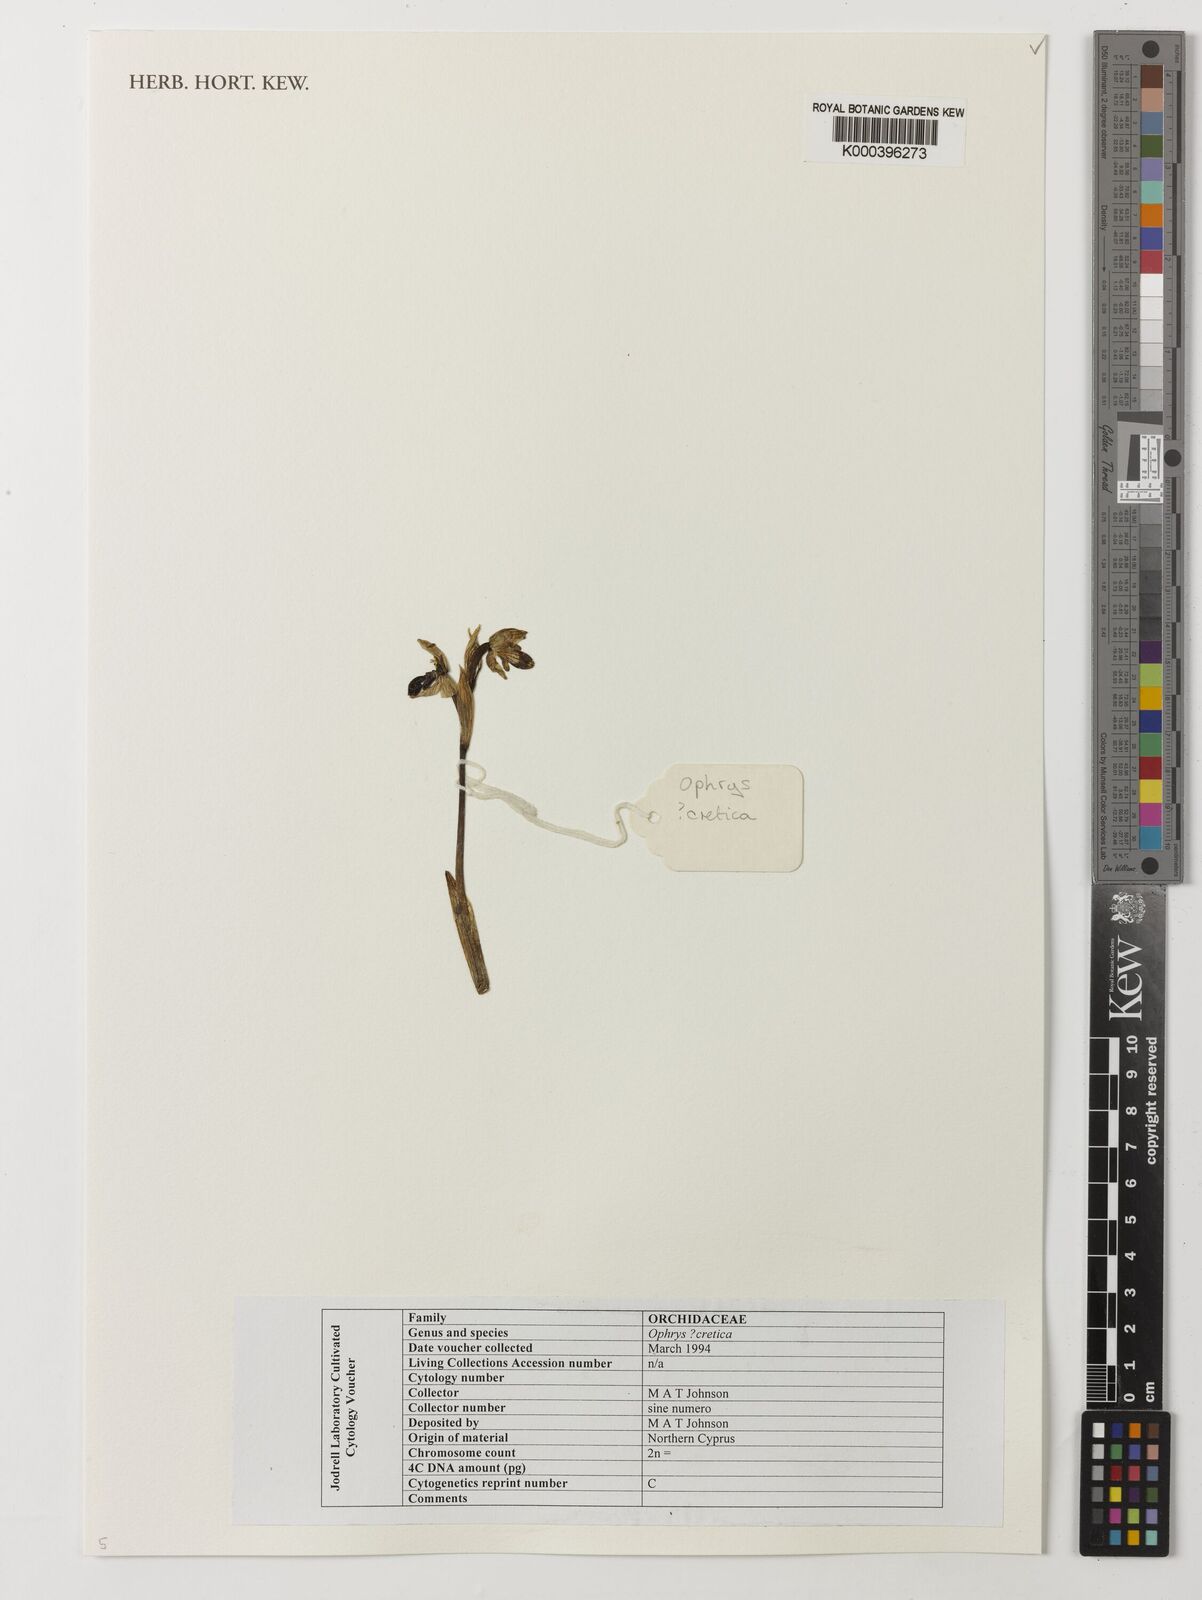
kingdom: Plantae
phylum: Tracheophyta
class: Liliopsida
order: Asparagales
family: Orchidaceae
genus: Ophrys
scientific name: Ophrys
